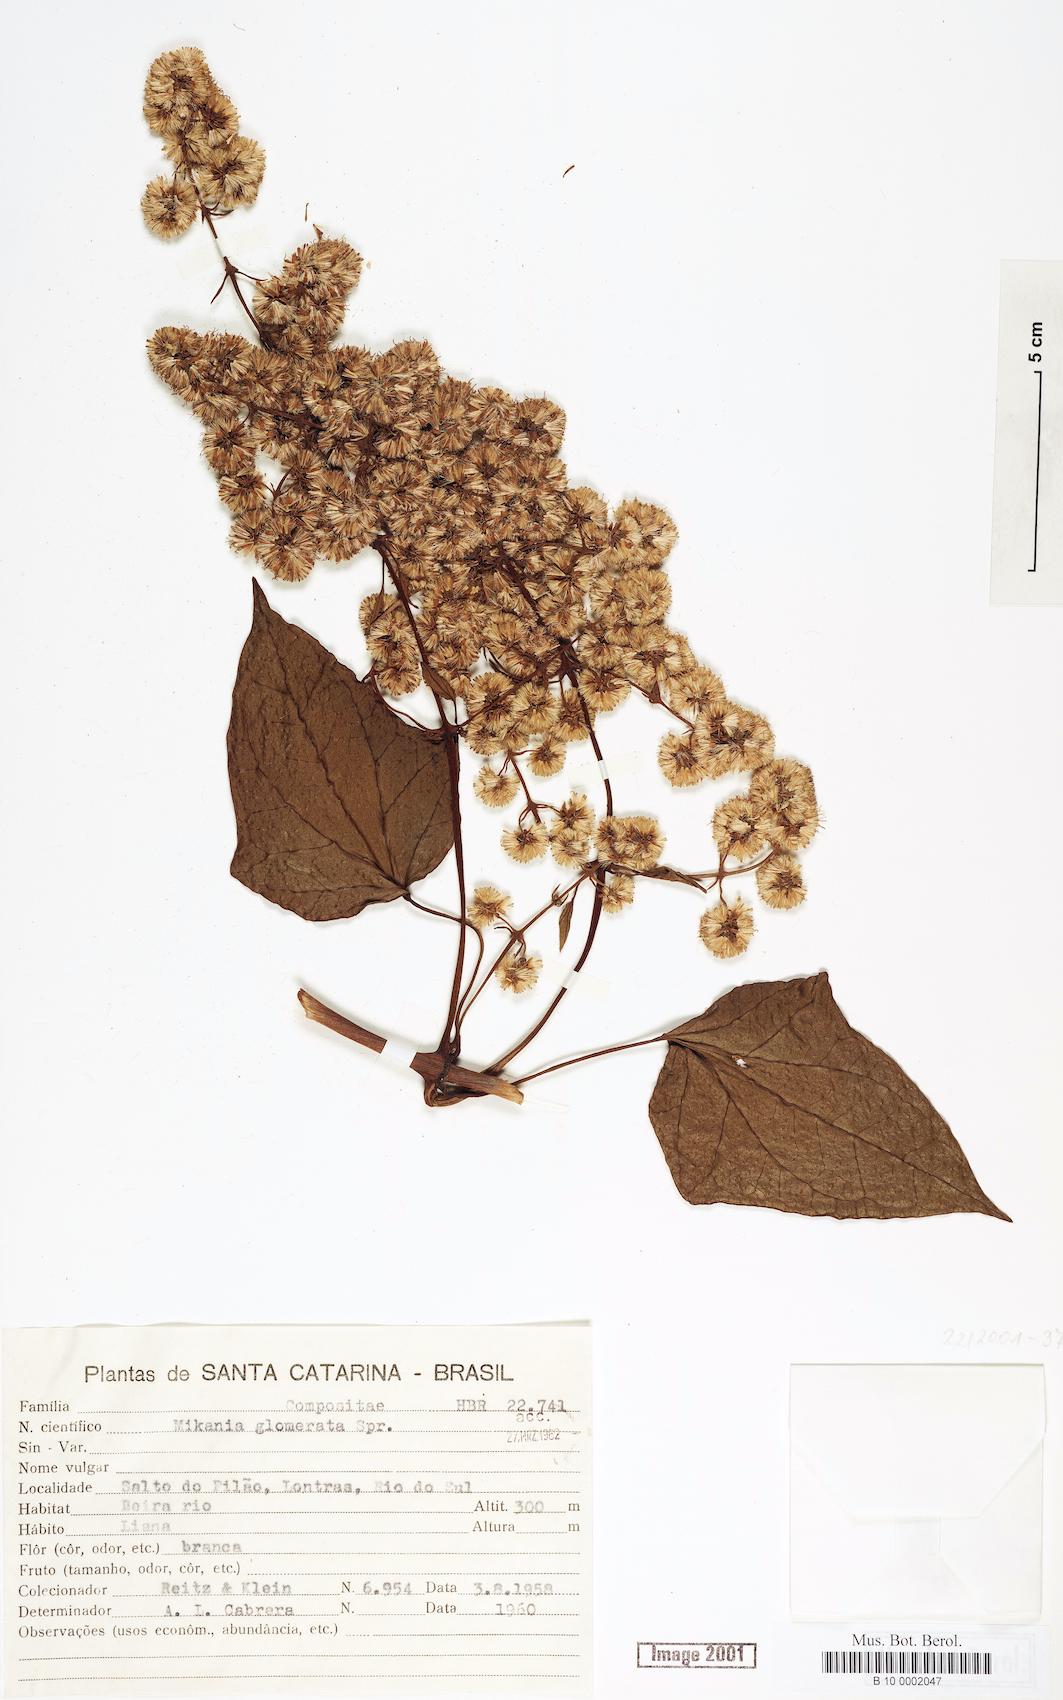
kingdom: Plantae
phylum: Tracheophyta
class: Magnoliopsida
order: Asterales
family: Asteraceae
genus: Mikania
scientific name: Mikania glomerata
